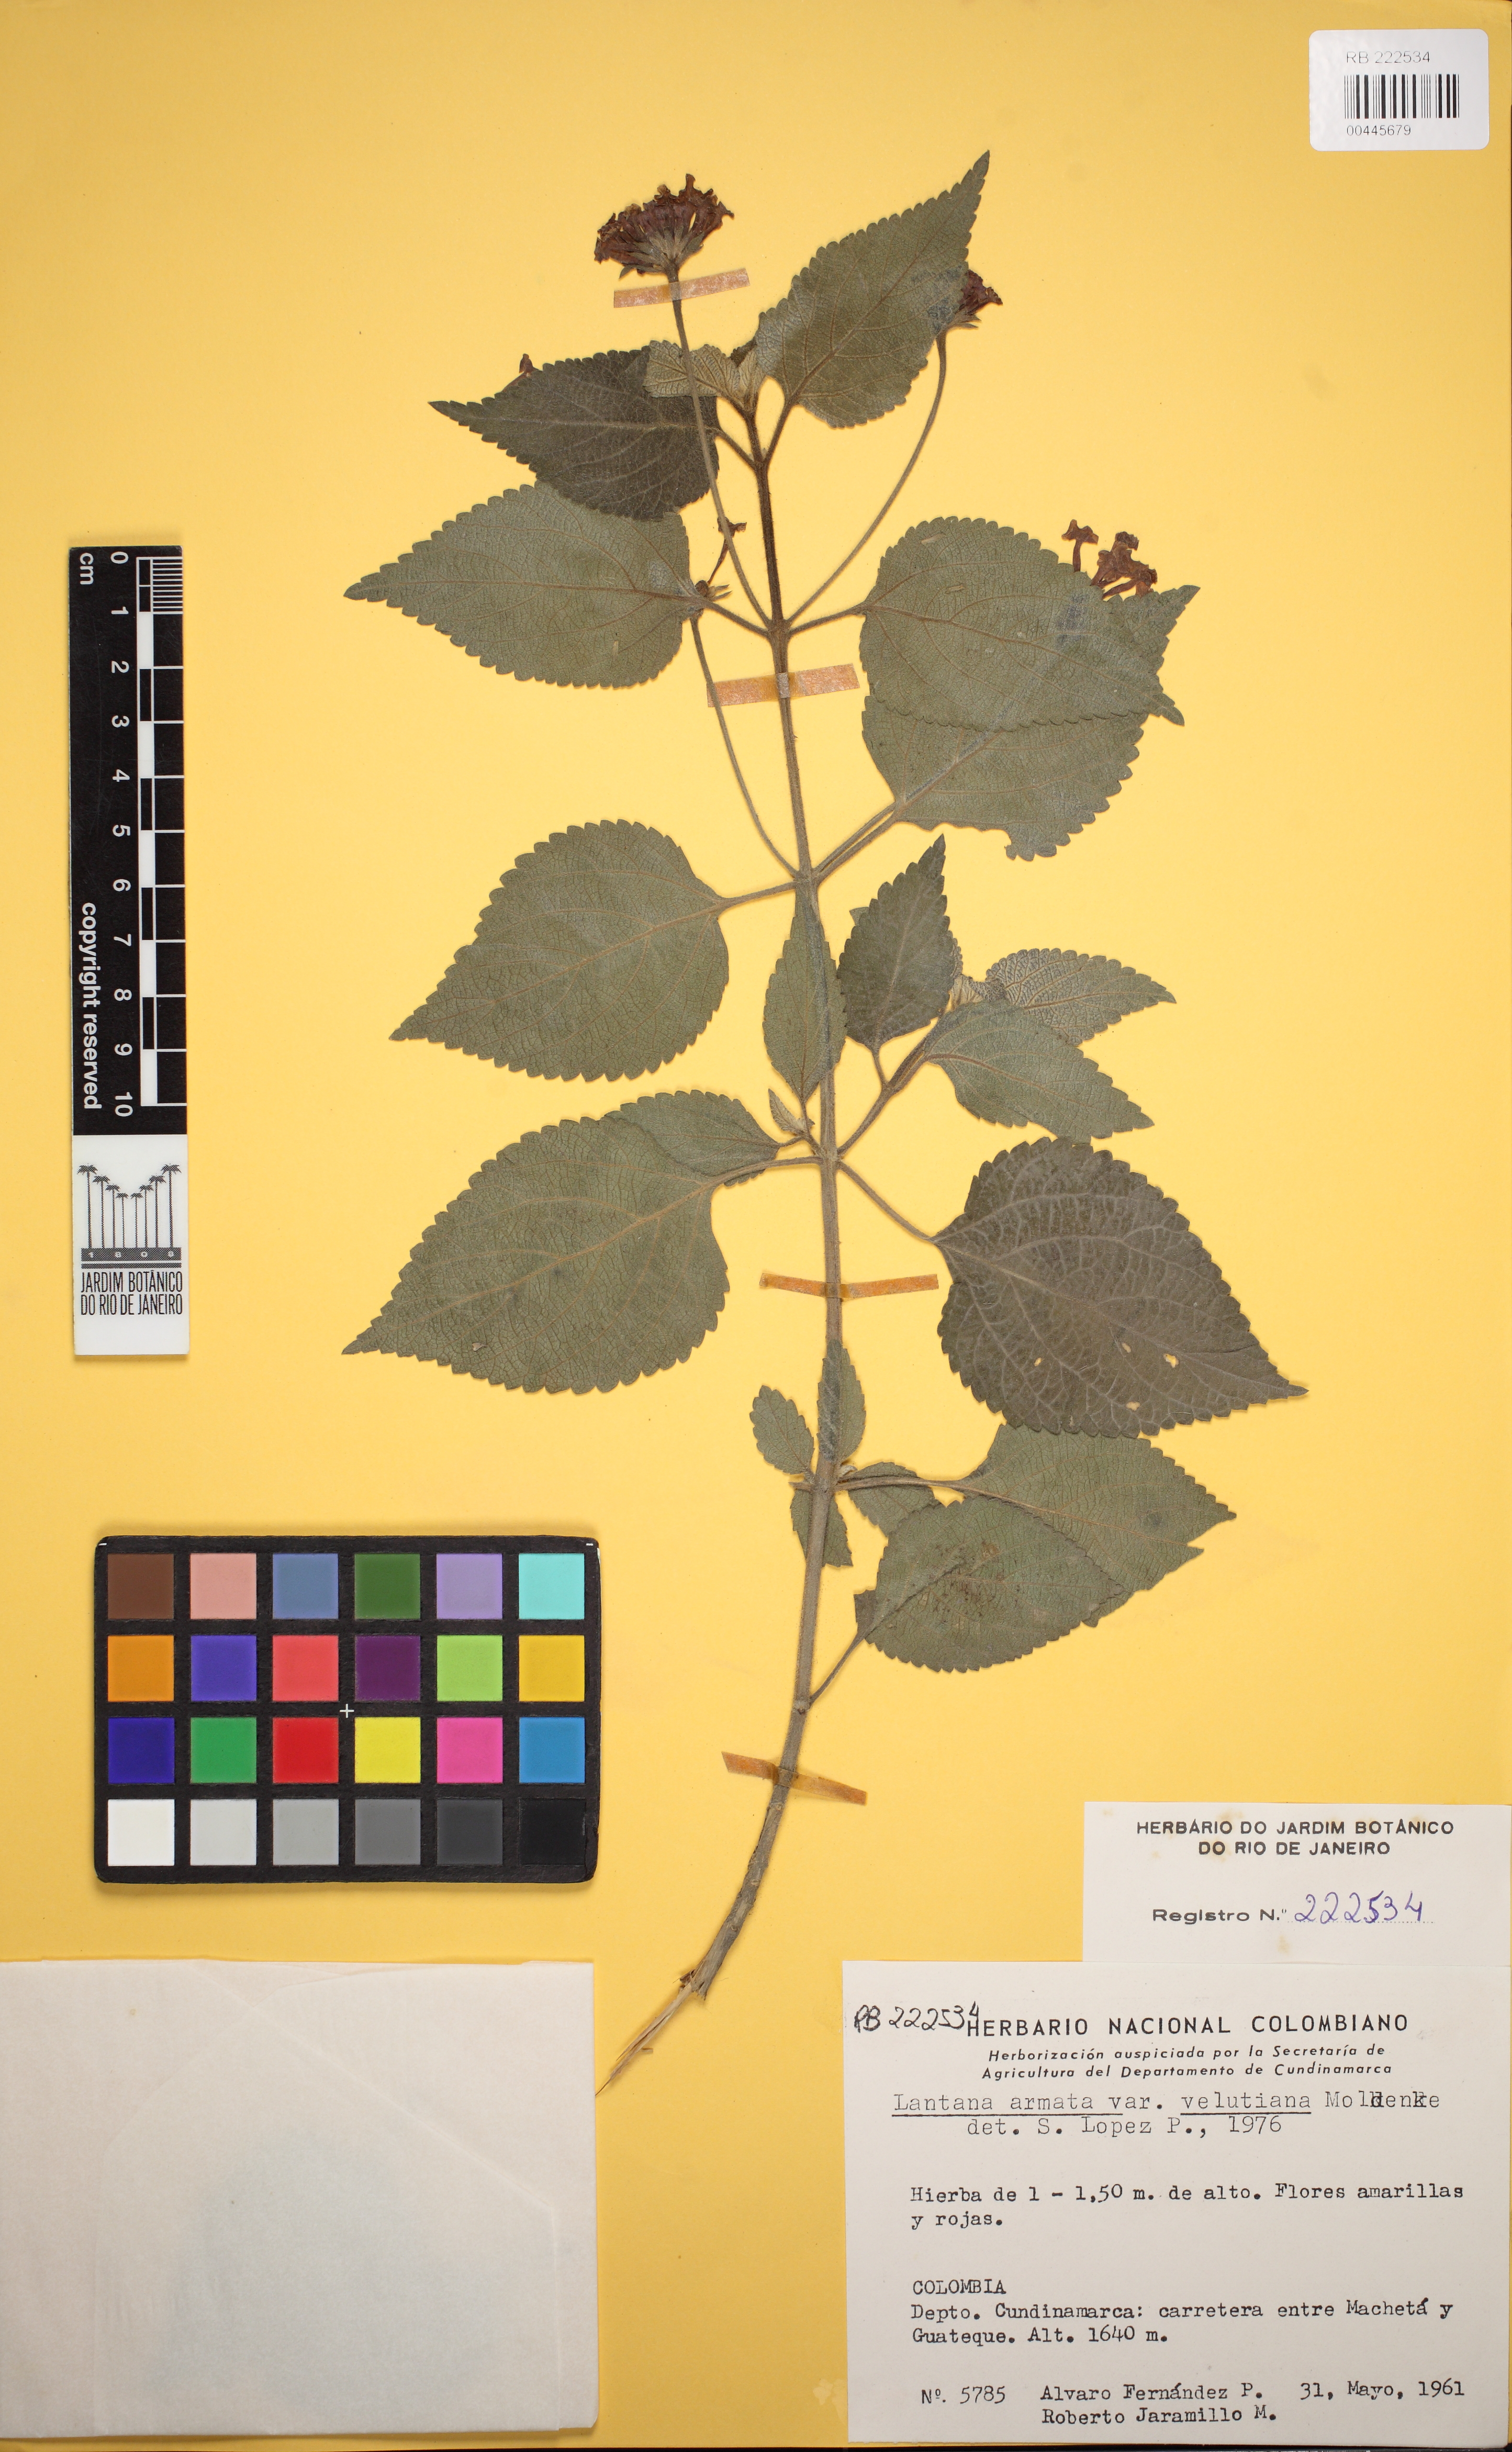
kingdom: Plantae
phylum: Tracheophyta
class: Magnoliopsida
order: Lamiales
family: Verbenaceae
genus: Lantana
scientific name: Lantana armata
